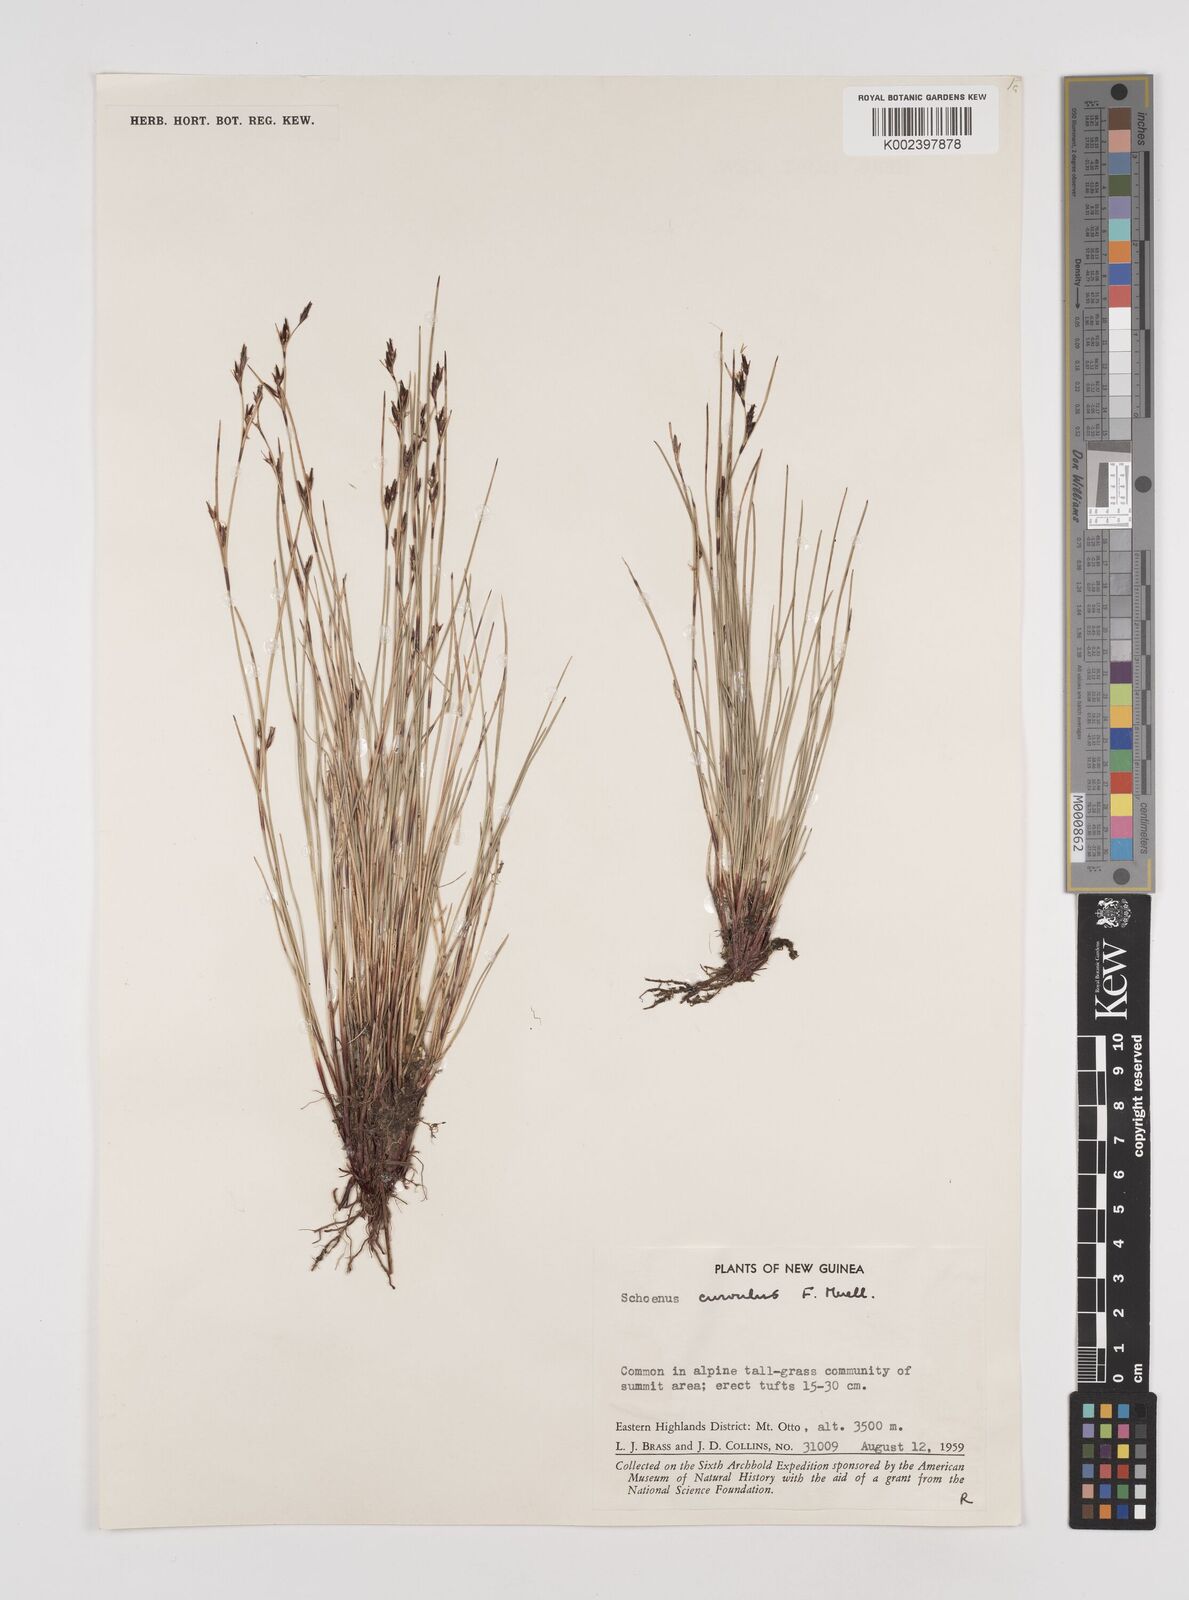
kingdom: Plantae
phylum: Tracheophyta
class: Liliopsida
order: Poales
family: Cyperaceae
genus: Schoenus
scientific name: Schoenus curvulus
